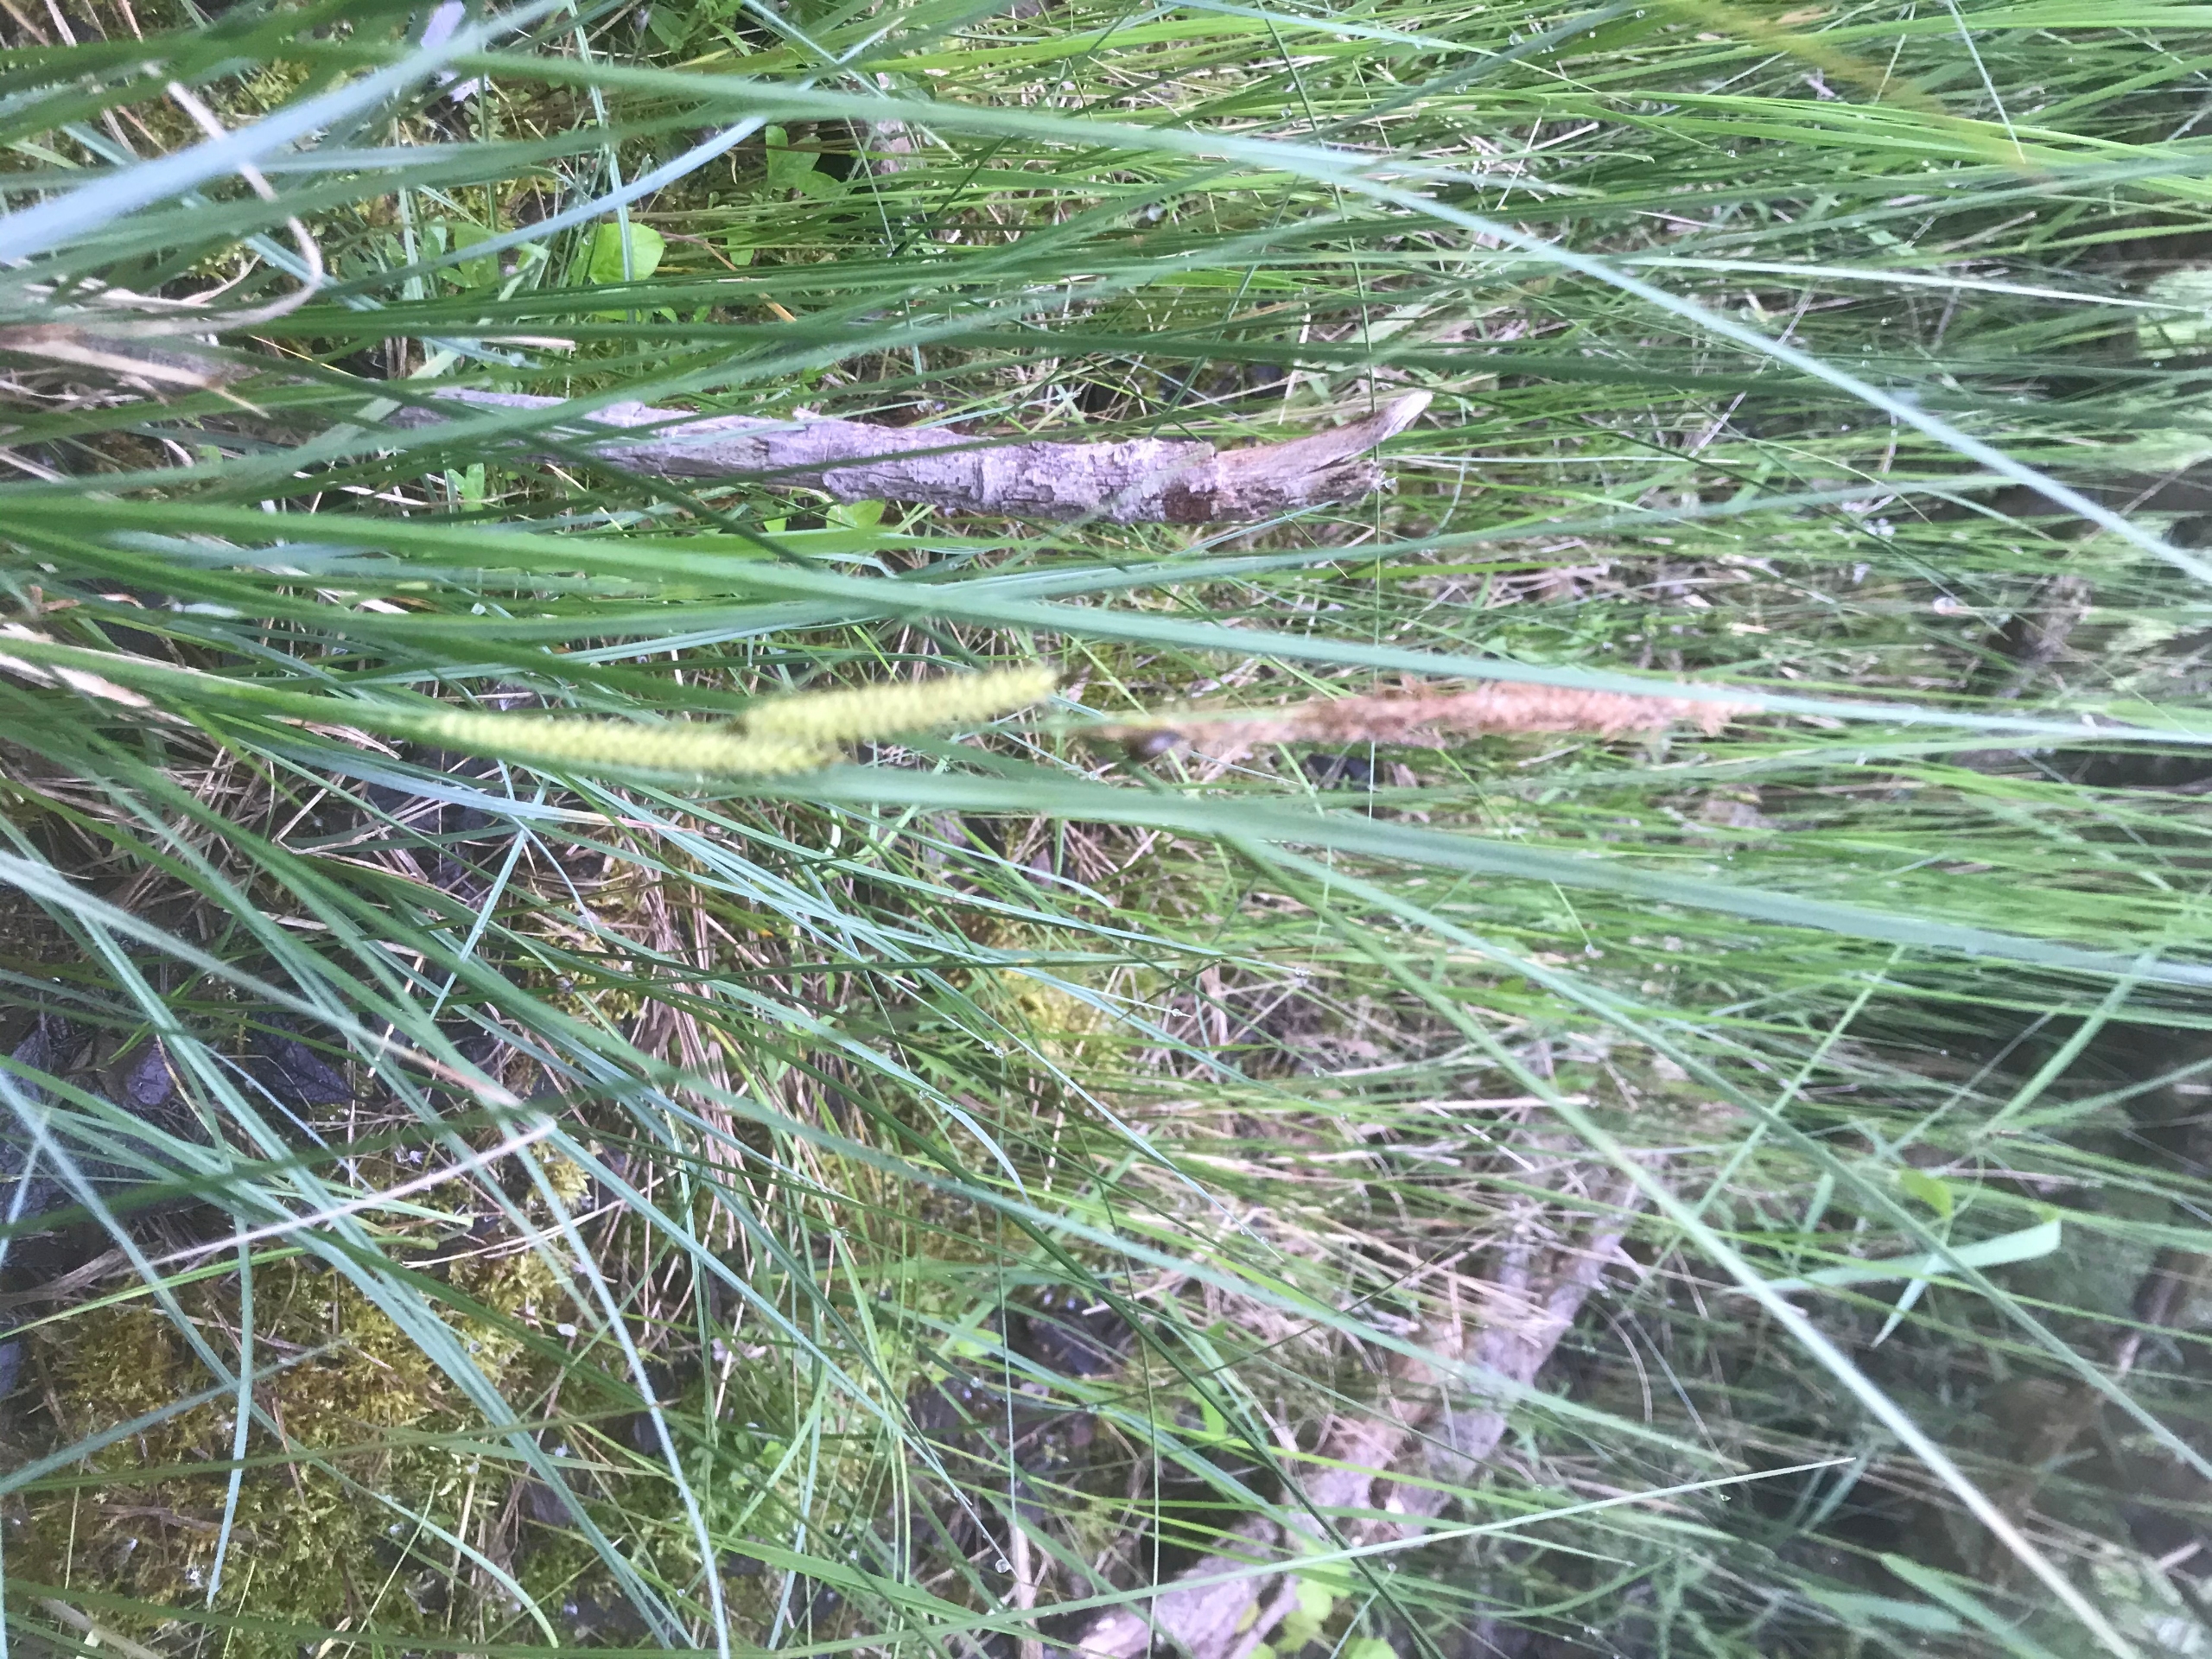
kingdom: Plantae
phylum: Tracheophyta
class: Liliopsida
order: Poales
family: Cyperaceae
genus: Carex
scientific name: Carex rostrata
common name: Næb-star
